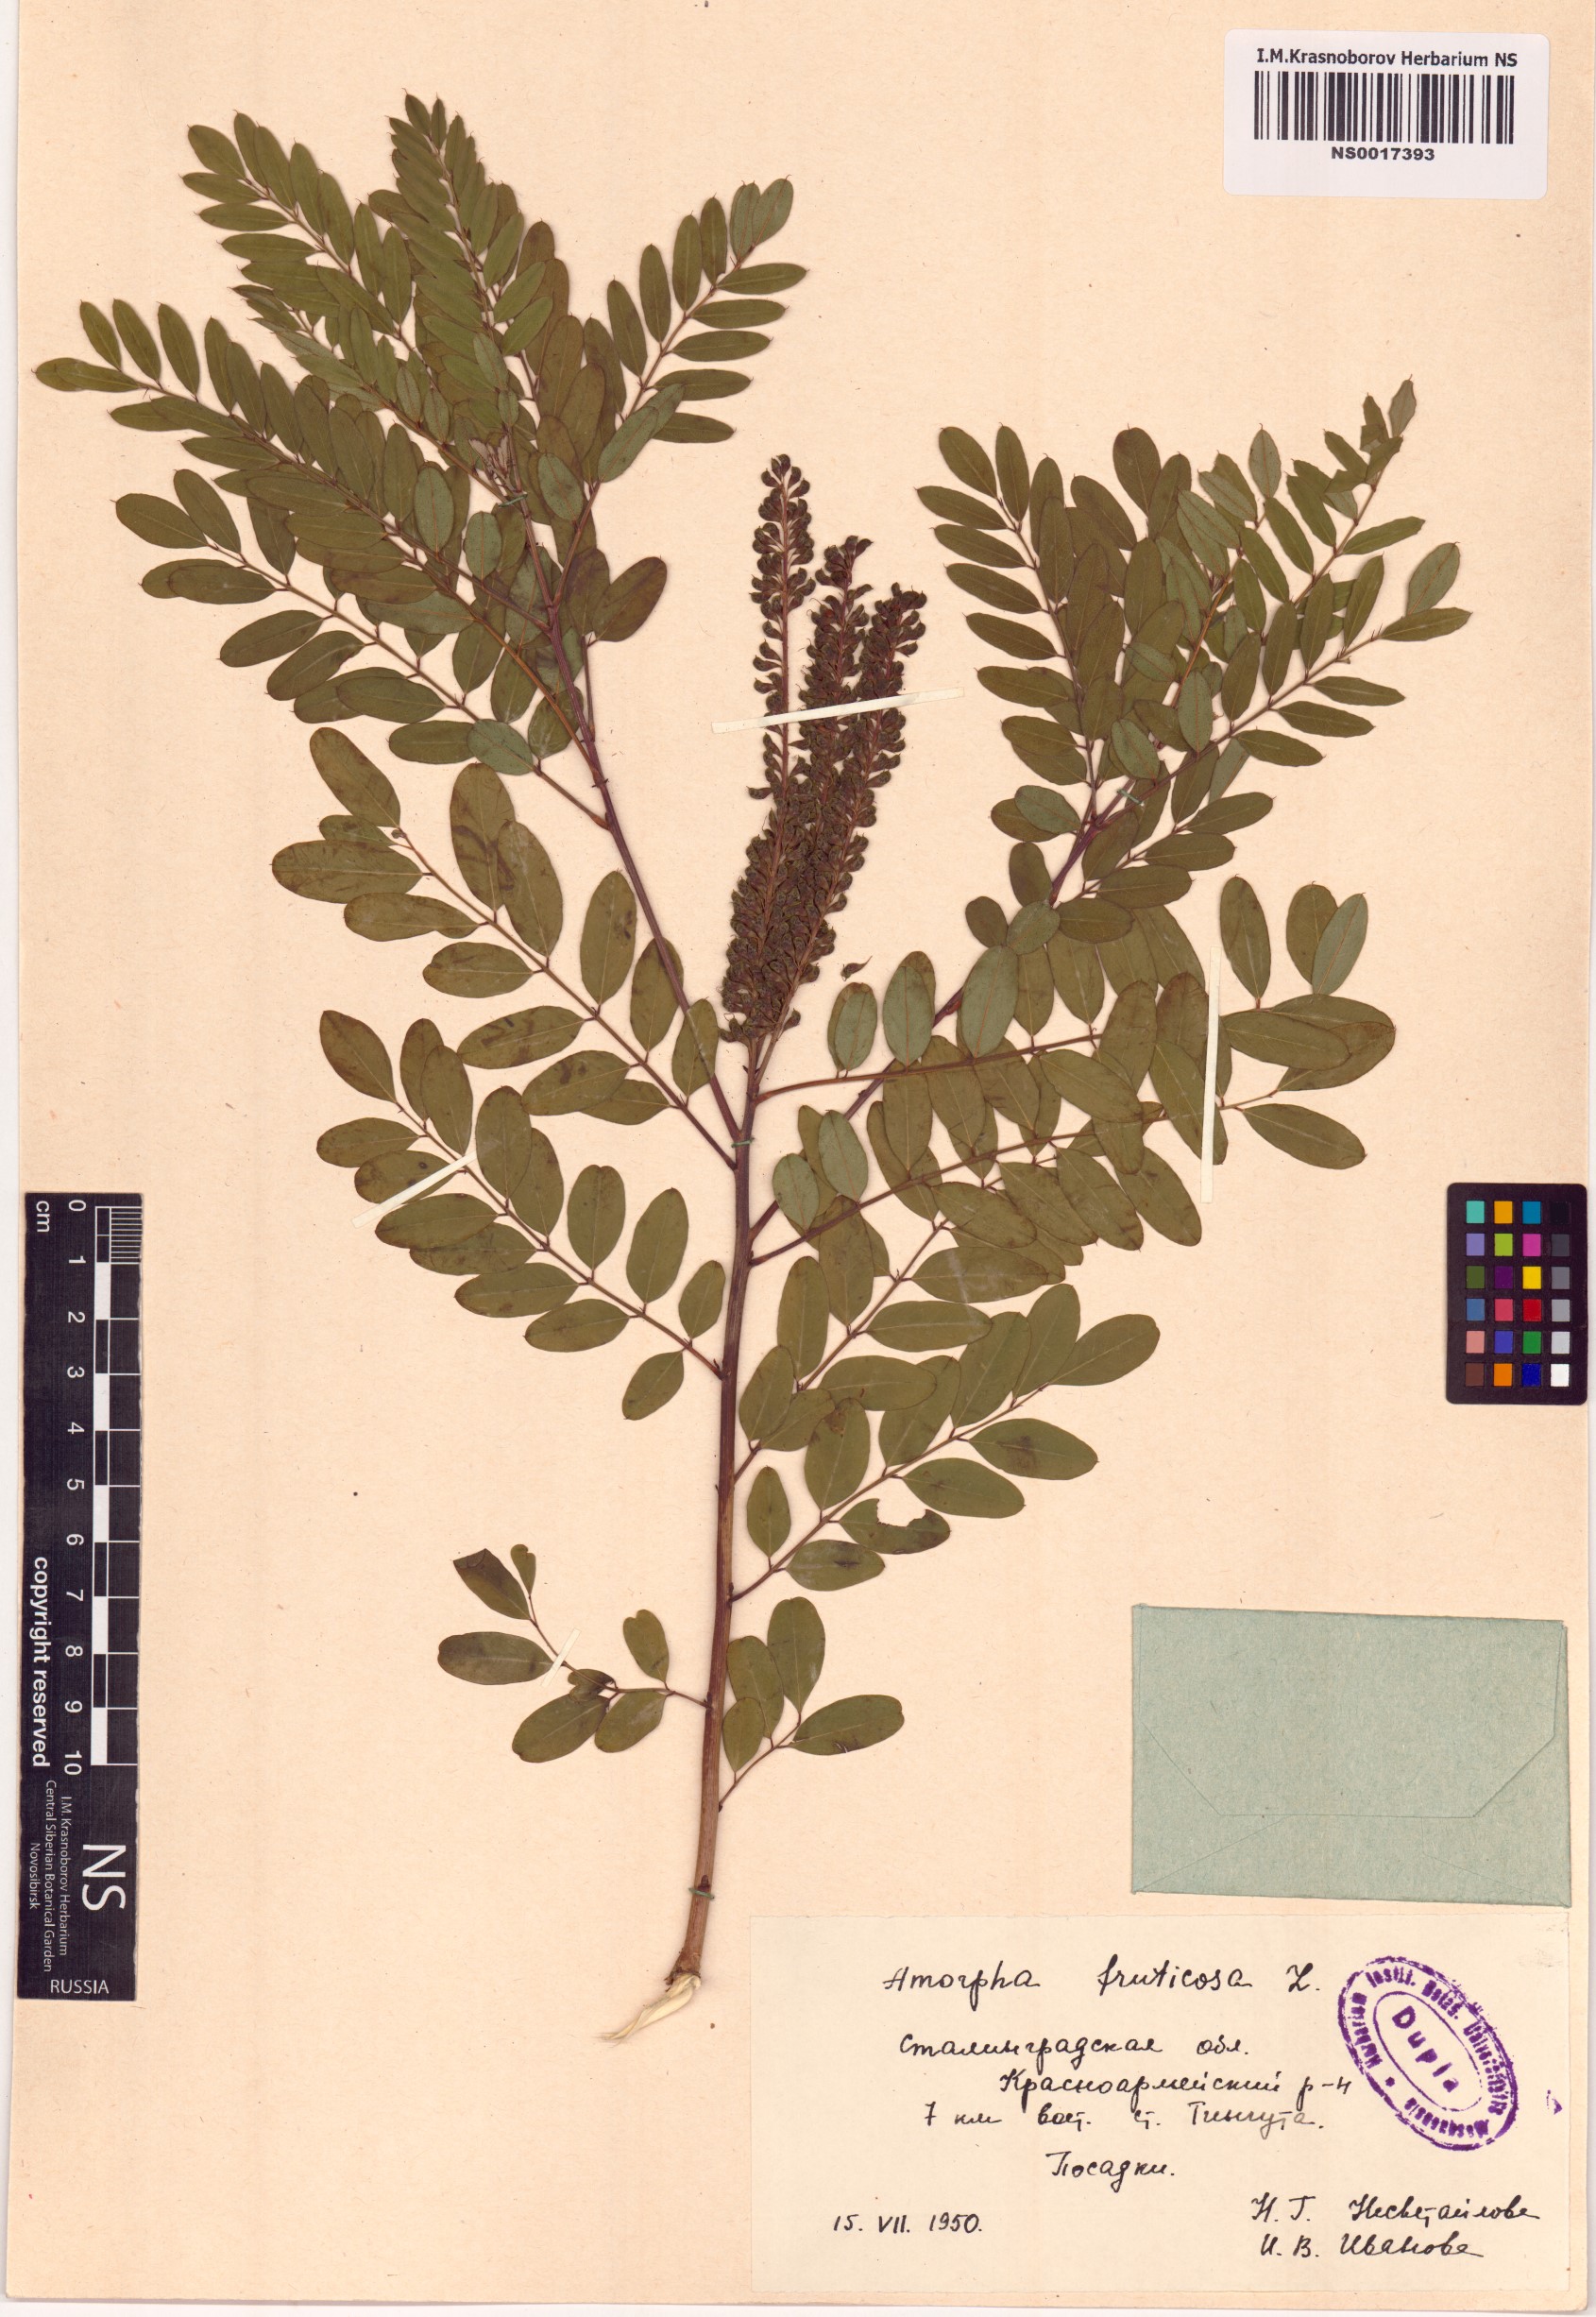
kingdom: Plantae
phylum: Tracheophyta
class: Magnoliopsida
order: Fabales
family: Fabaceae
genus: Amorpha
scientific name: Amorpha fruticosa
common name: False indigo
